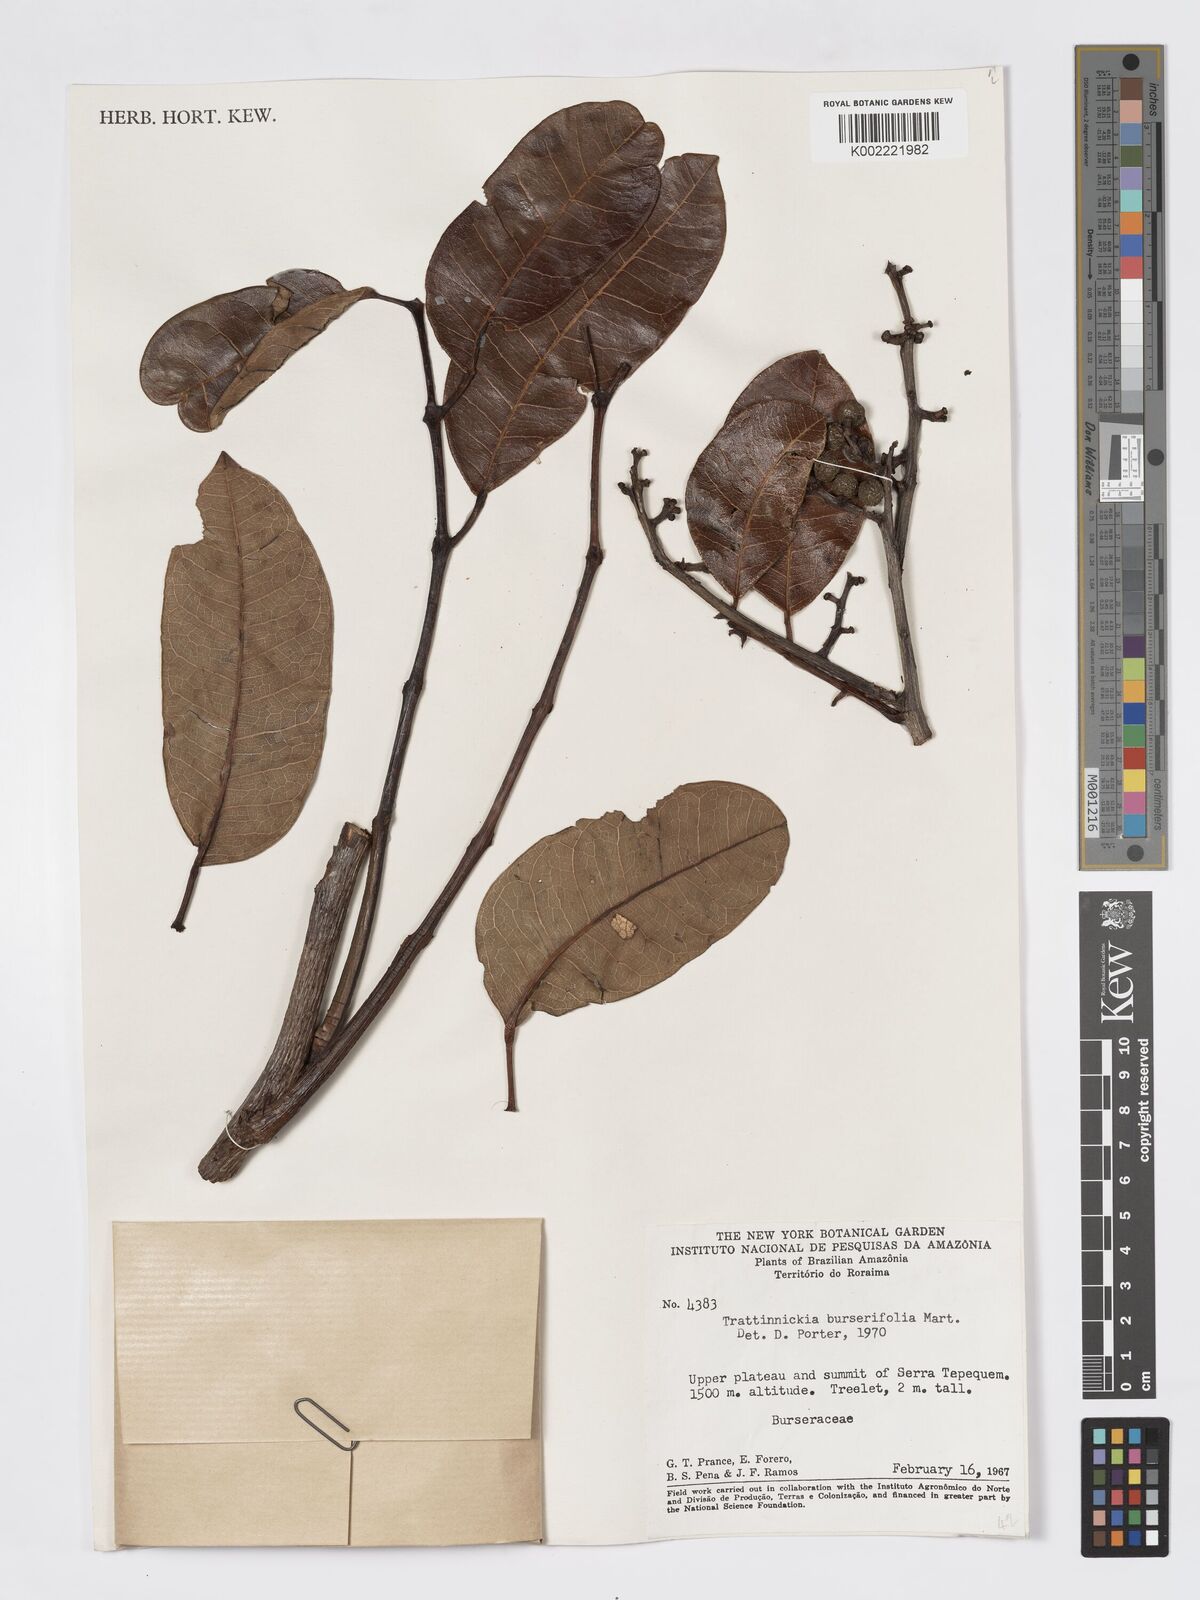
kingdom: Plantae
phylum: Tracheophyta
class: Magnoliopsida
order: Sapindales
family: Burseraceae
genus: Trattinnickia
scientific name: Trattinnickia burserifolia
